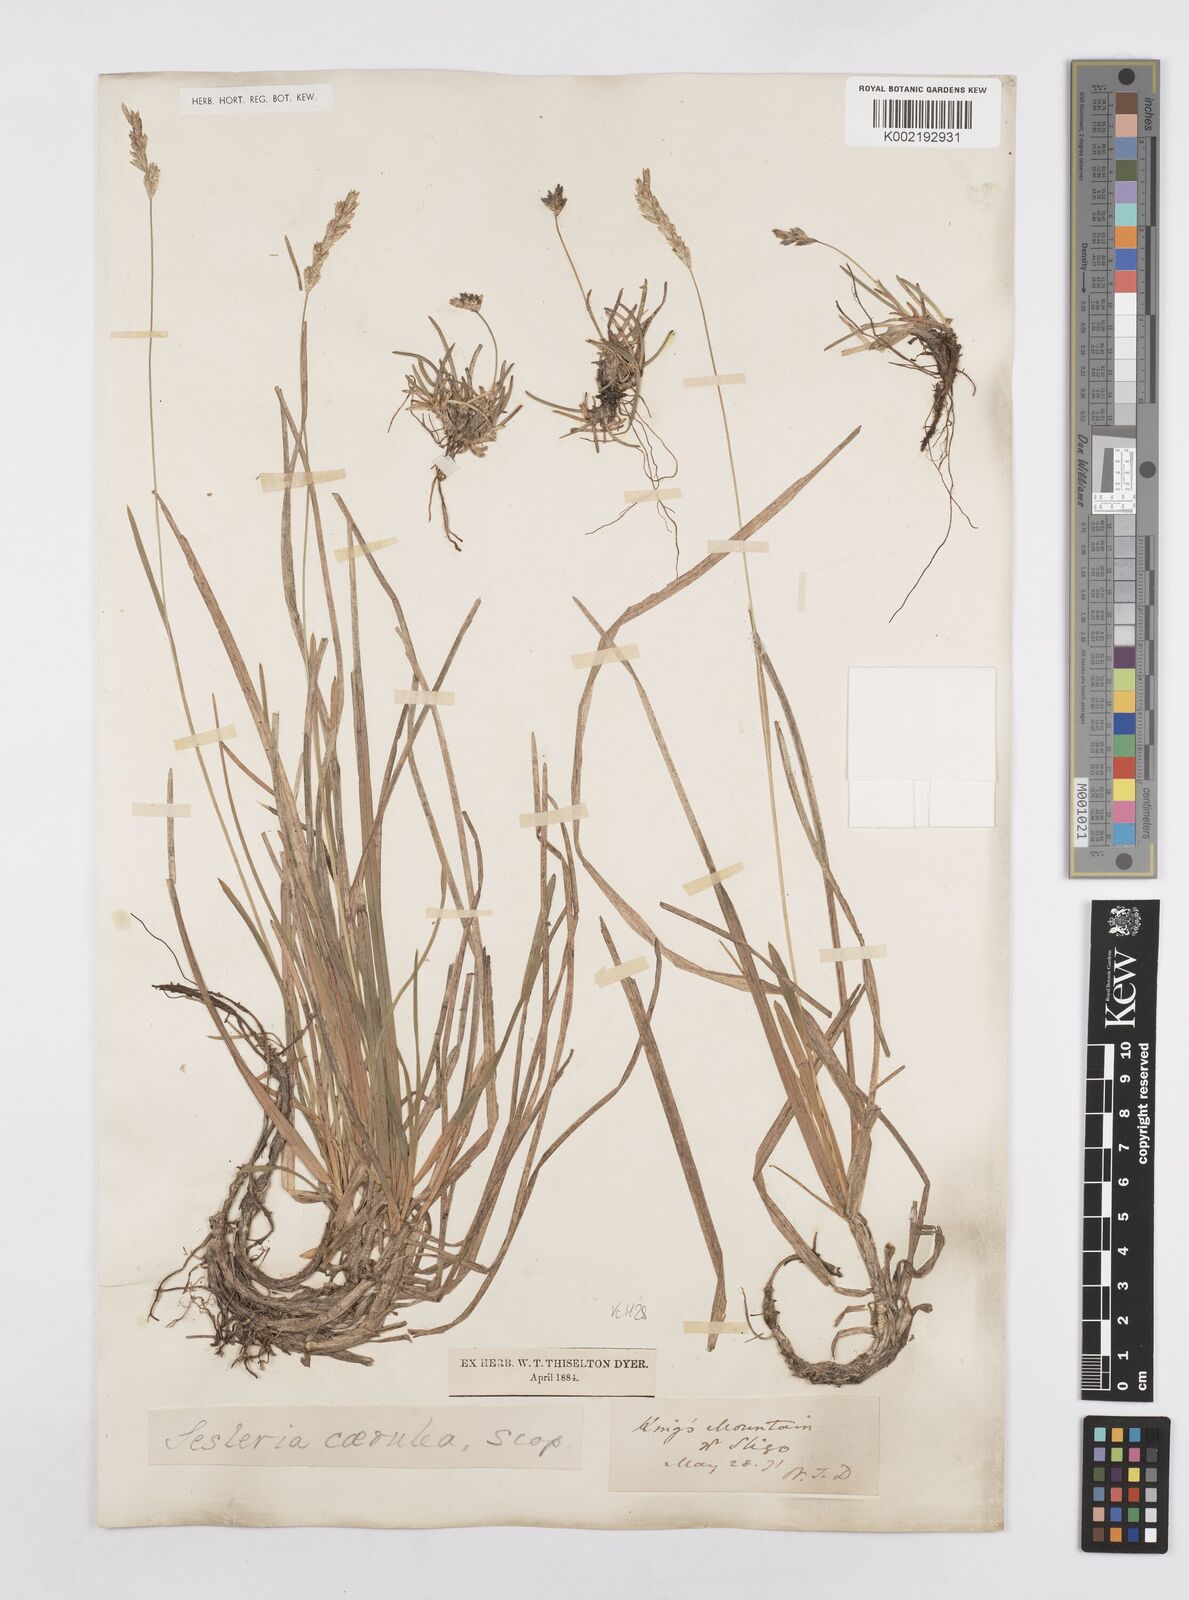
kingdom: Plantae
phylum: Tracheophyta
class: Liliopsida
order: Poales
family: Poaceae
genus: Sesleria
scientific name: Sesleria caerulea
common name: Blue moor-grass
